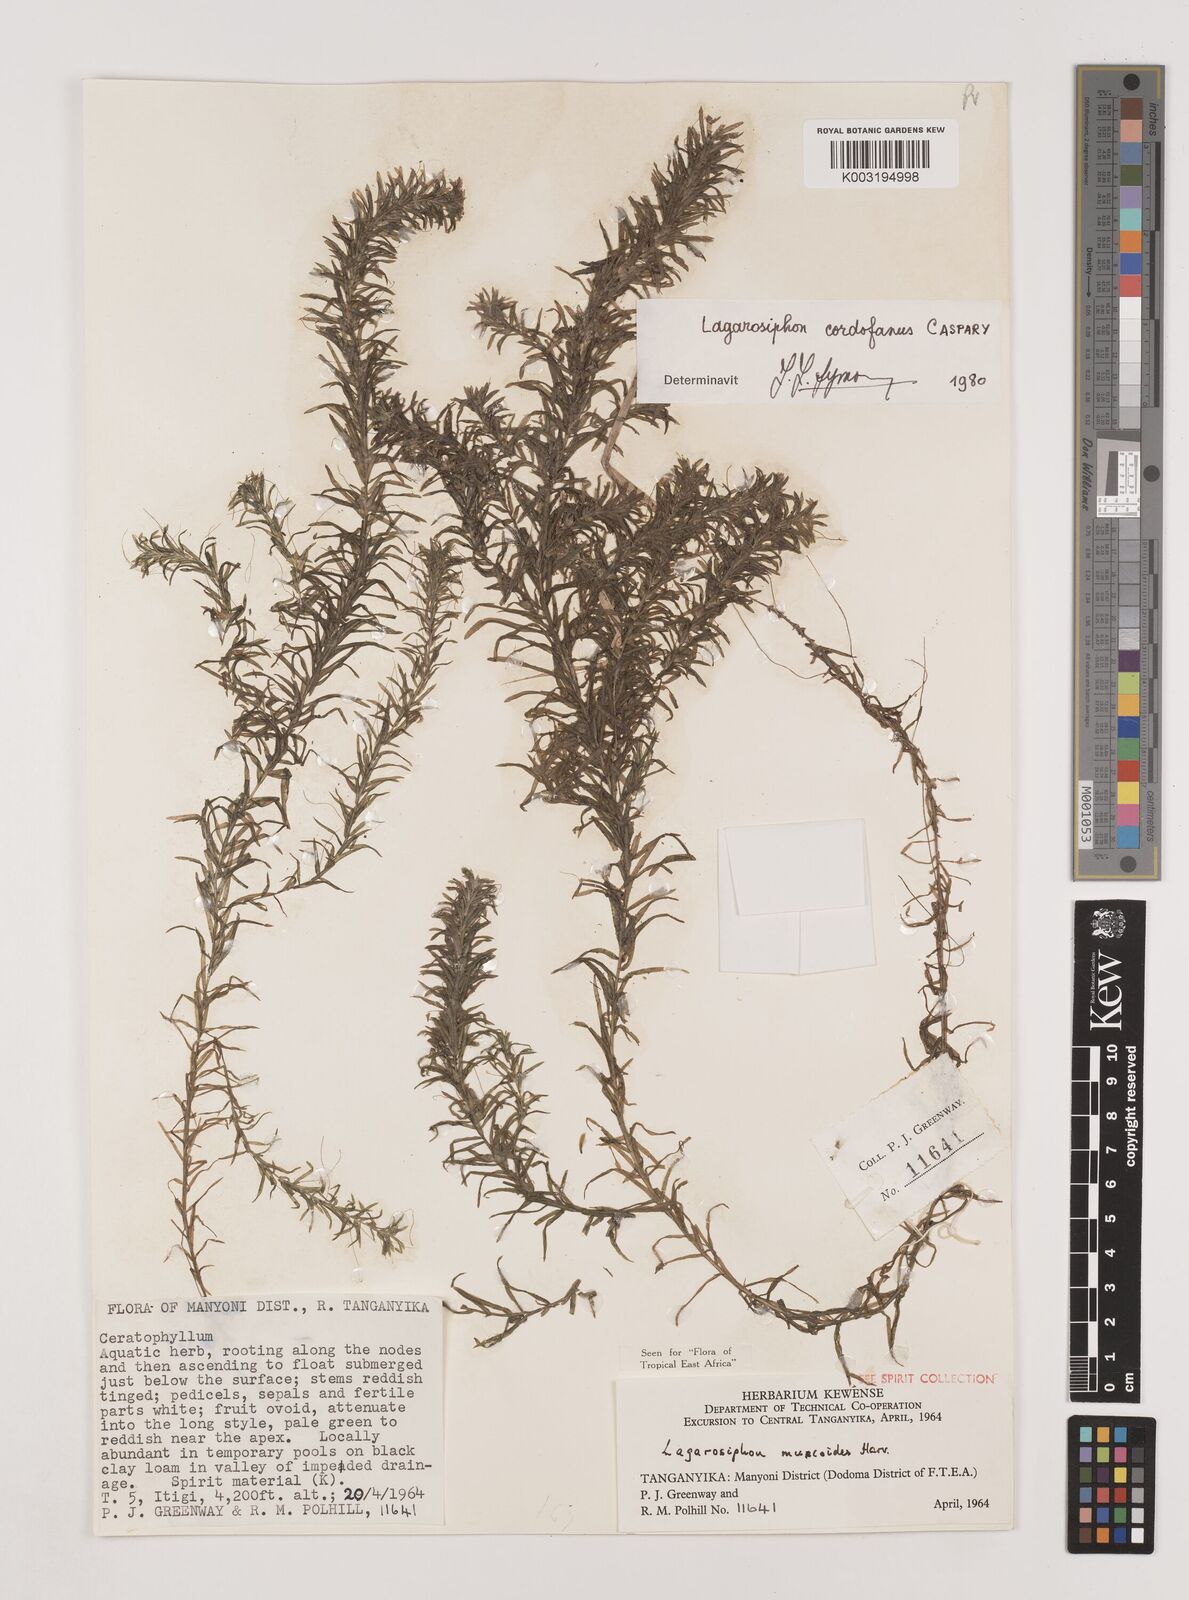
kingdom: Plantae
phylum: Tracheophyta
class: Liliopsida
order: Alismatales
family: Hydrocharitaceae
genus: Lagarosiphon
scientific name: Lagarosiphon cordofanus
